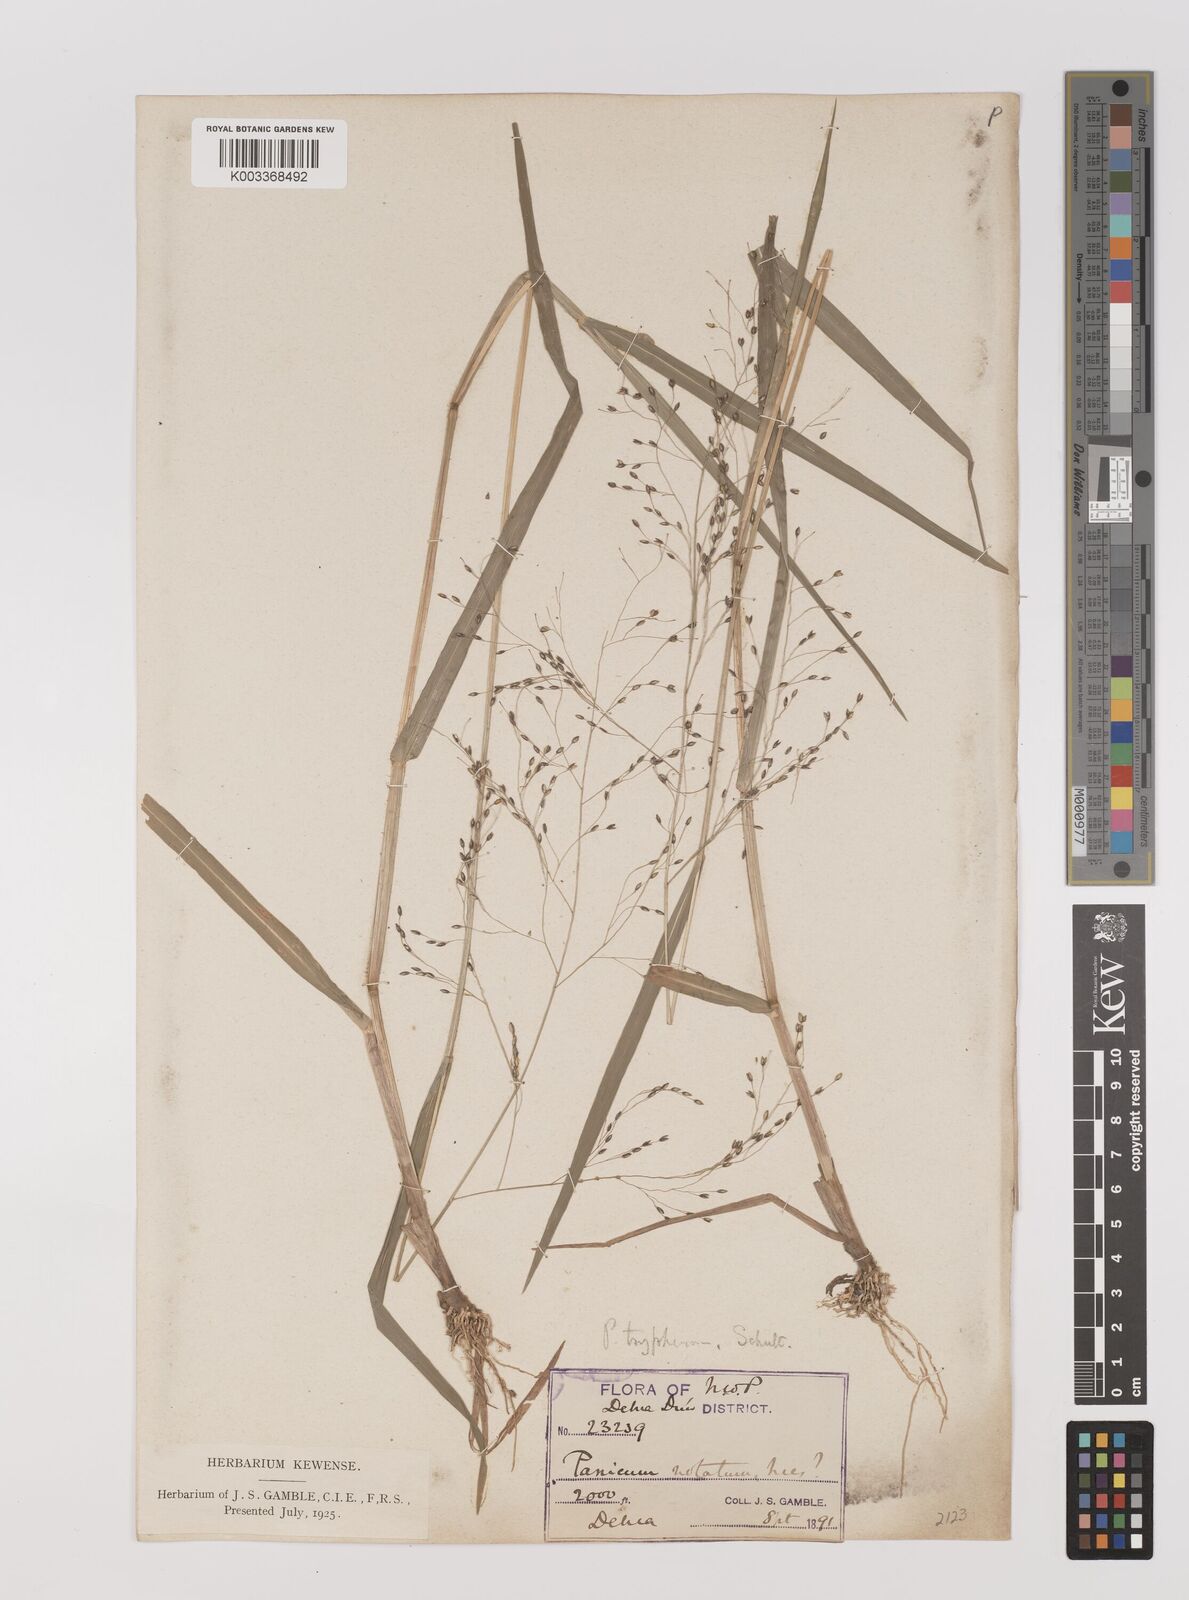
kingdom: Plantae
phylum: Tracheophyta
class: Liliopsida
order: Poales
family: Poaceae
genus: Panicum
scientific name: Panicum sumatrense
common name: Little millet
